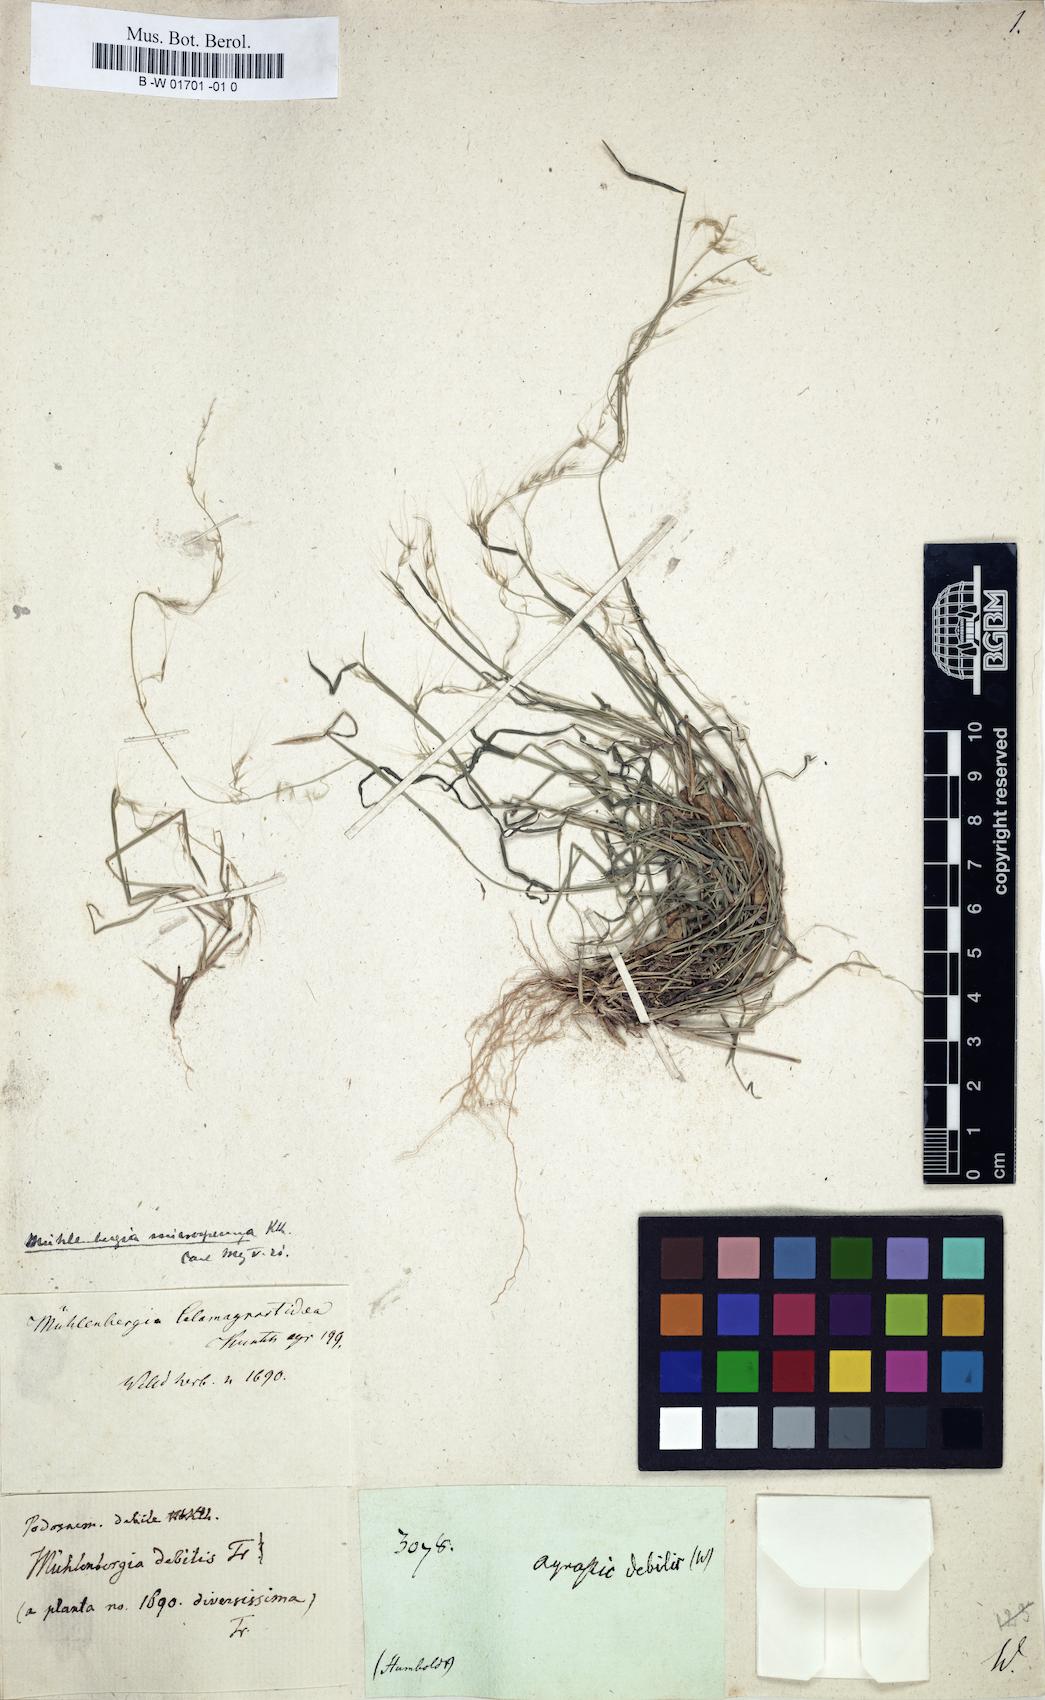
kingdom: Plantae
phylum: Tracheophyta
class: Liliopsida
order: Poales
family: Poaceae
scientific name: Poaceae
